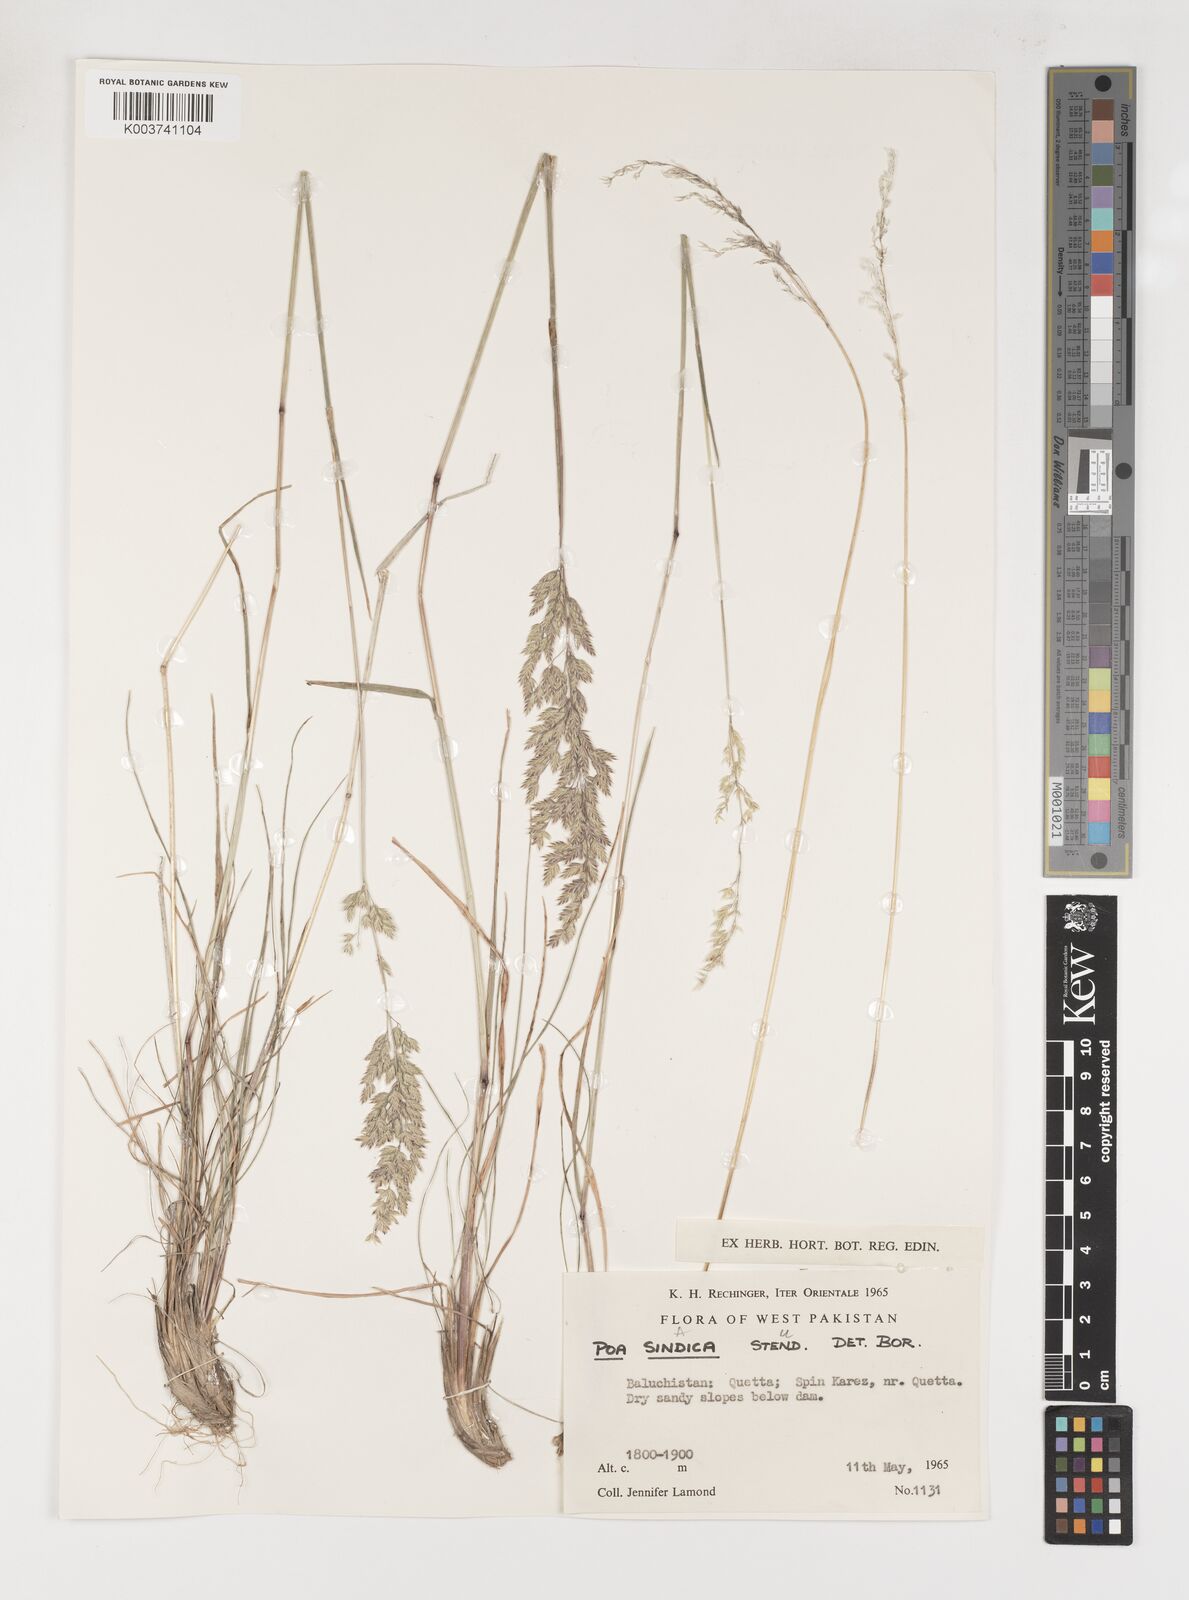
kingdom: Plantae
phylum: Tracheophyta
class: Liliopsida
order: Poales
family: Poaceae
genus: Poa
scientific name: Poa sinaica
